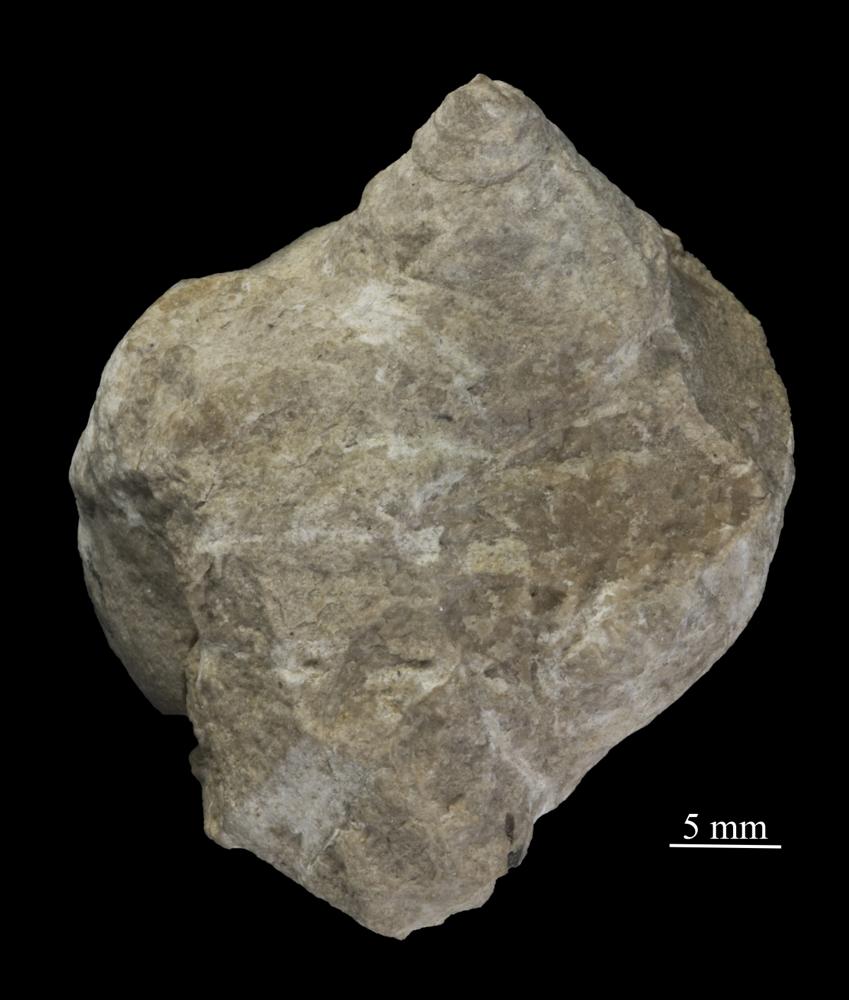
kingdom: Animalia
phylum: Mollusca
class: Gastropoda
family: Lophospiridae
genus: Ruedemannia
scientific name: Ruedemannia Worthenia borkholmiensis
